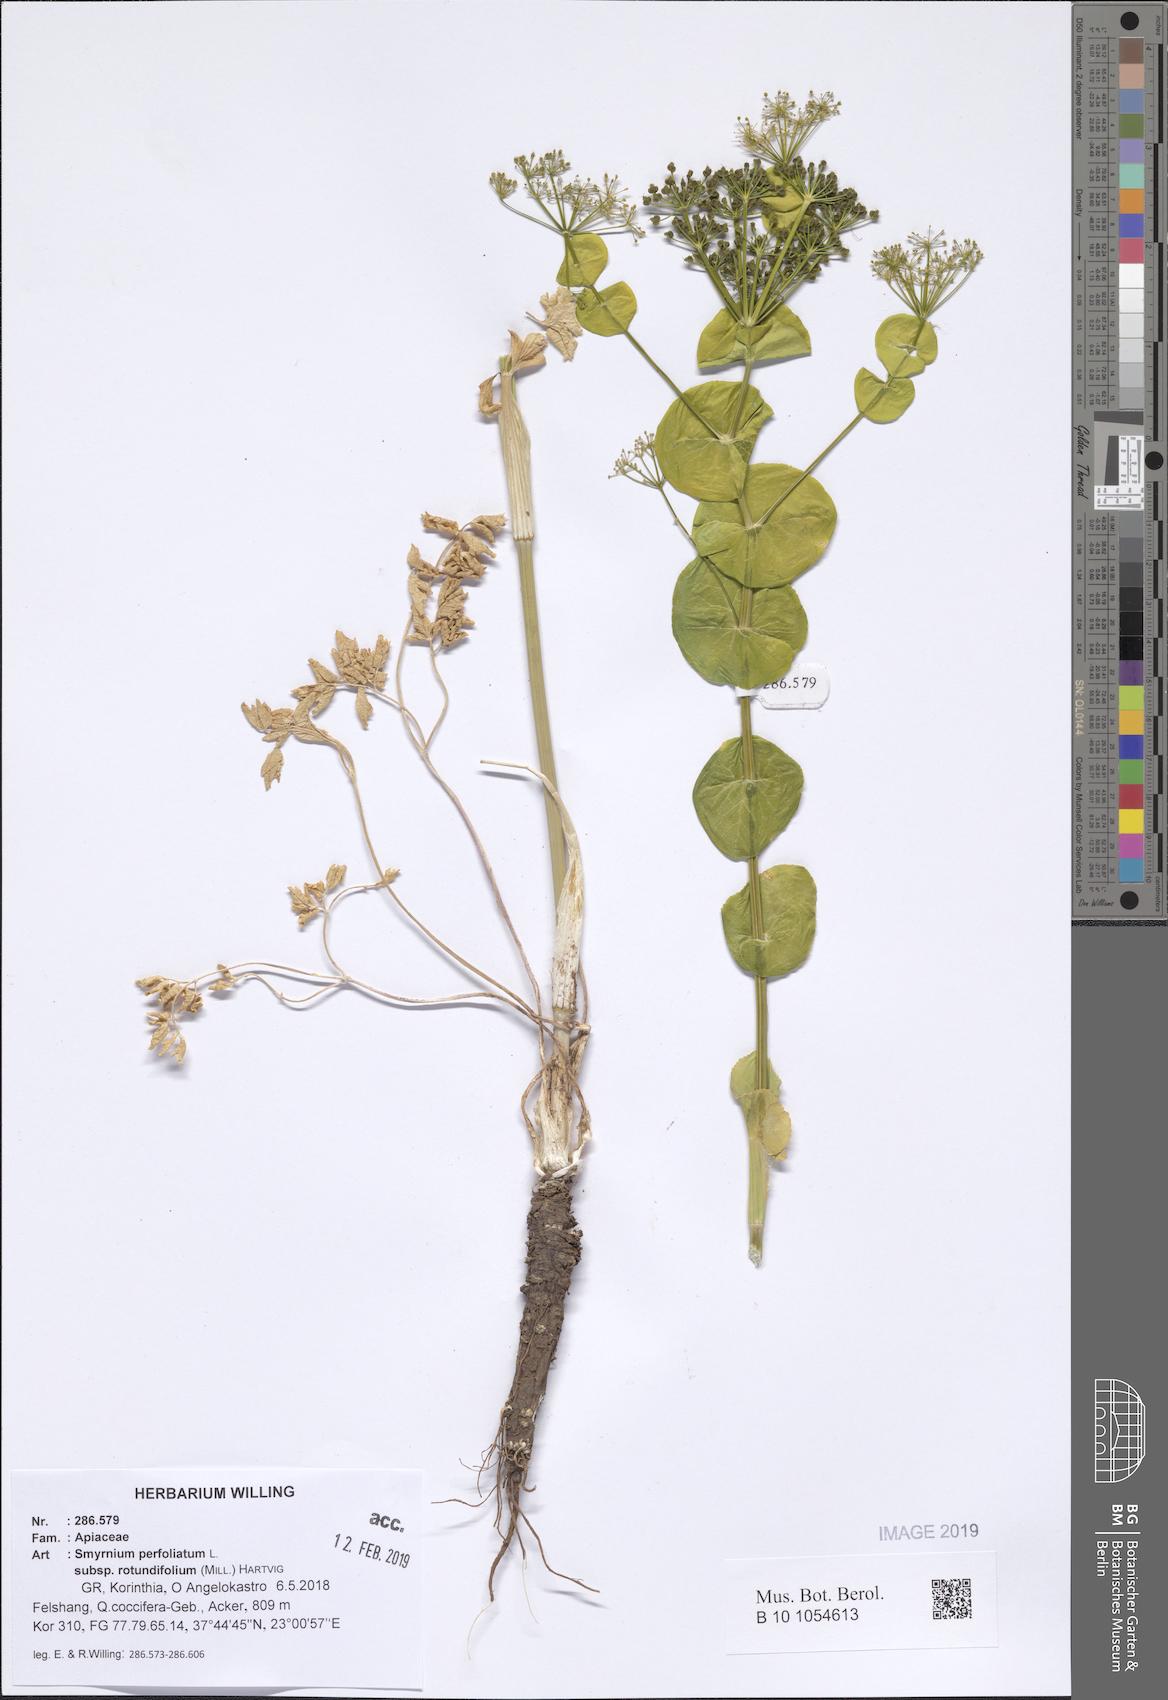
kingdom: Plantae
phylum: Tracheophyta
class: Magnoliopsida
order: Apiales
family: Apiaceae
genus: Smyrnium
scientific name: Smyrnium perfoliatum
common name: Perfoliate alexanders
